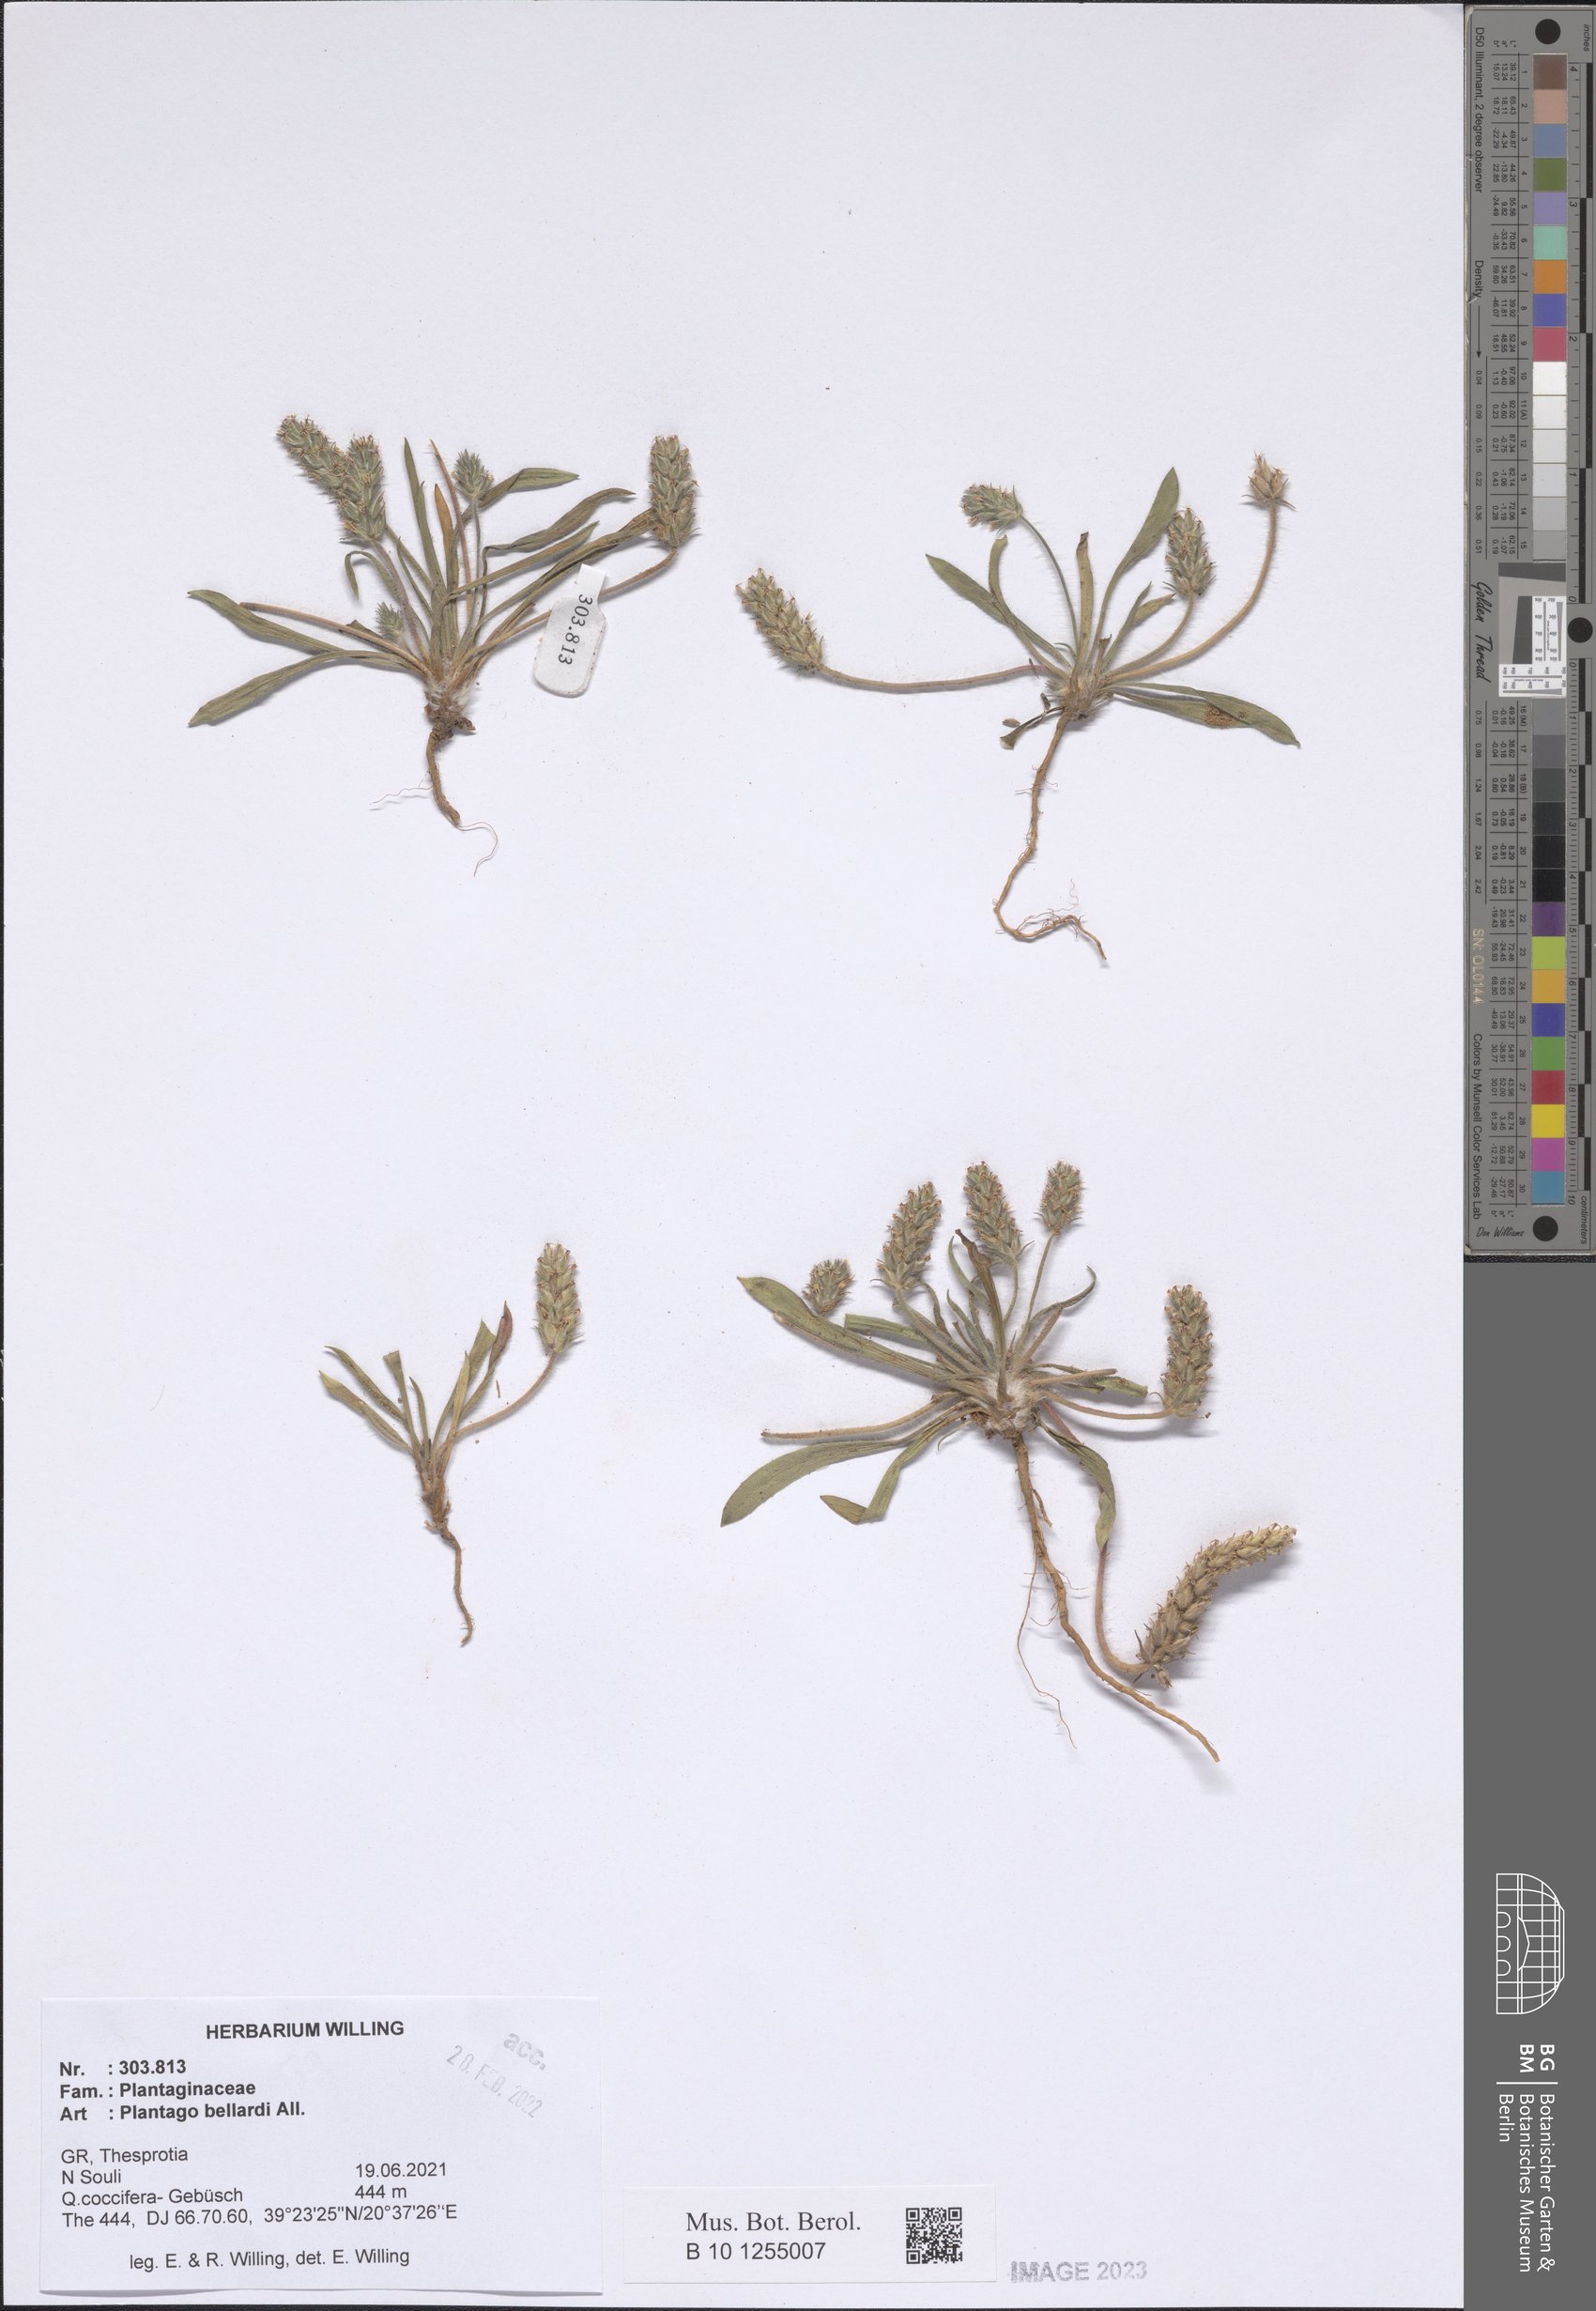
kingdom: Plantae
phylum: Tracheophyta
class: Magnoliopsida
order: Lamiales
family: Plantaginaceae
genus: Plantago
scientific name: Plantago bellardii
